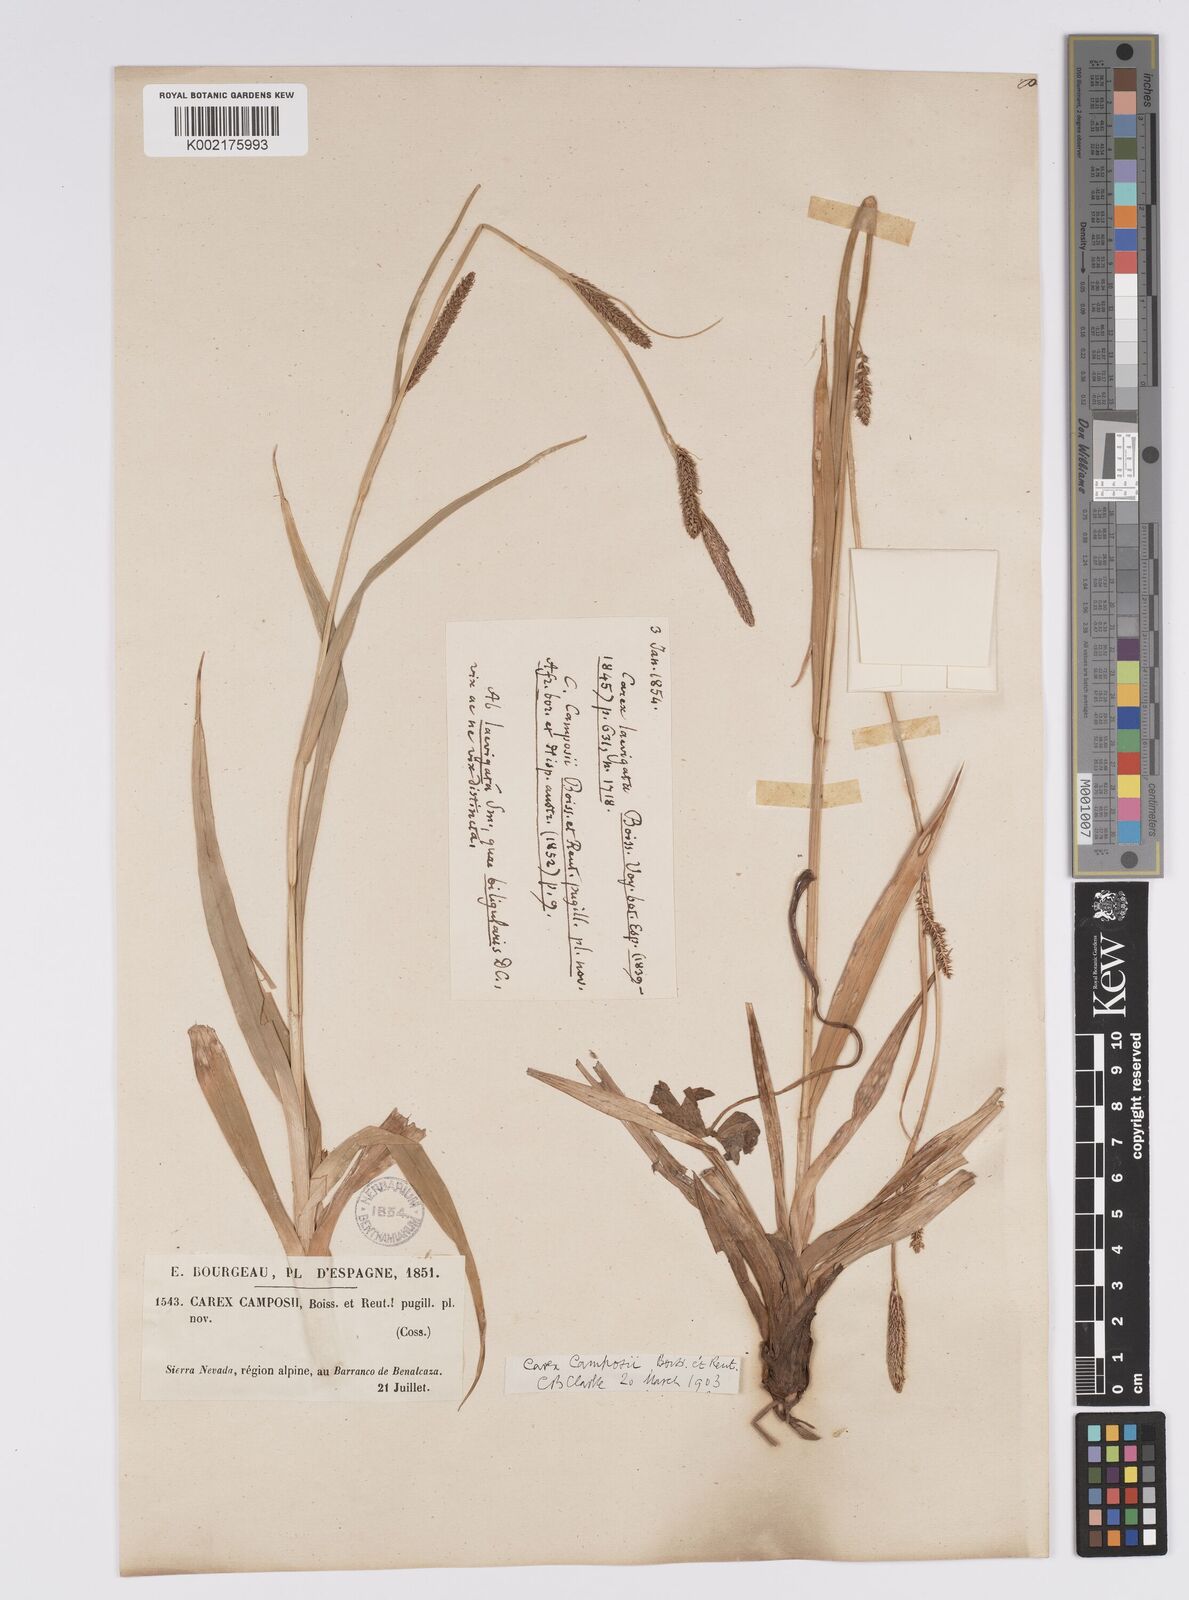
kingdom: Plantae
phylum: Tracheophyta
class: Liliopsida
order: Poales
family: Cyperaceae
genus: Carex
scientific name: Carex camposii
